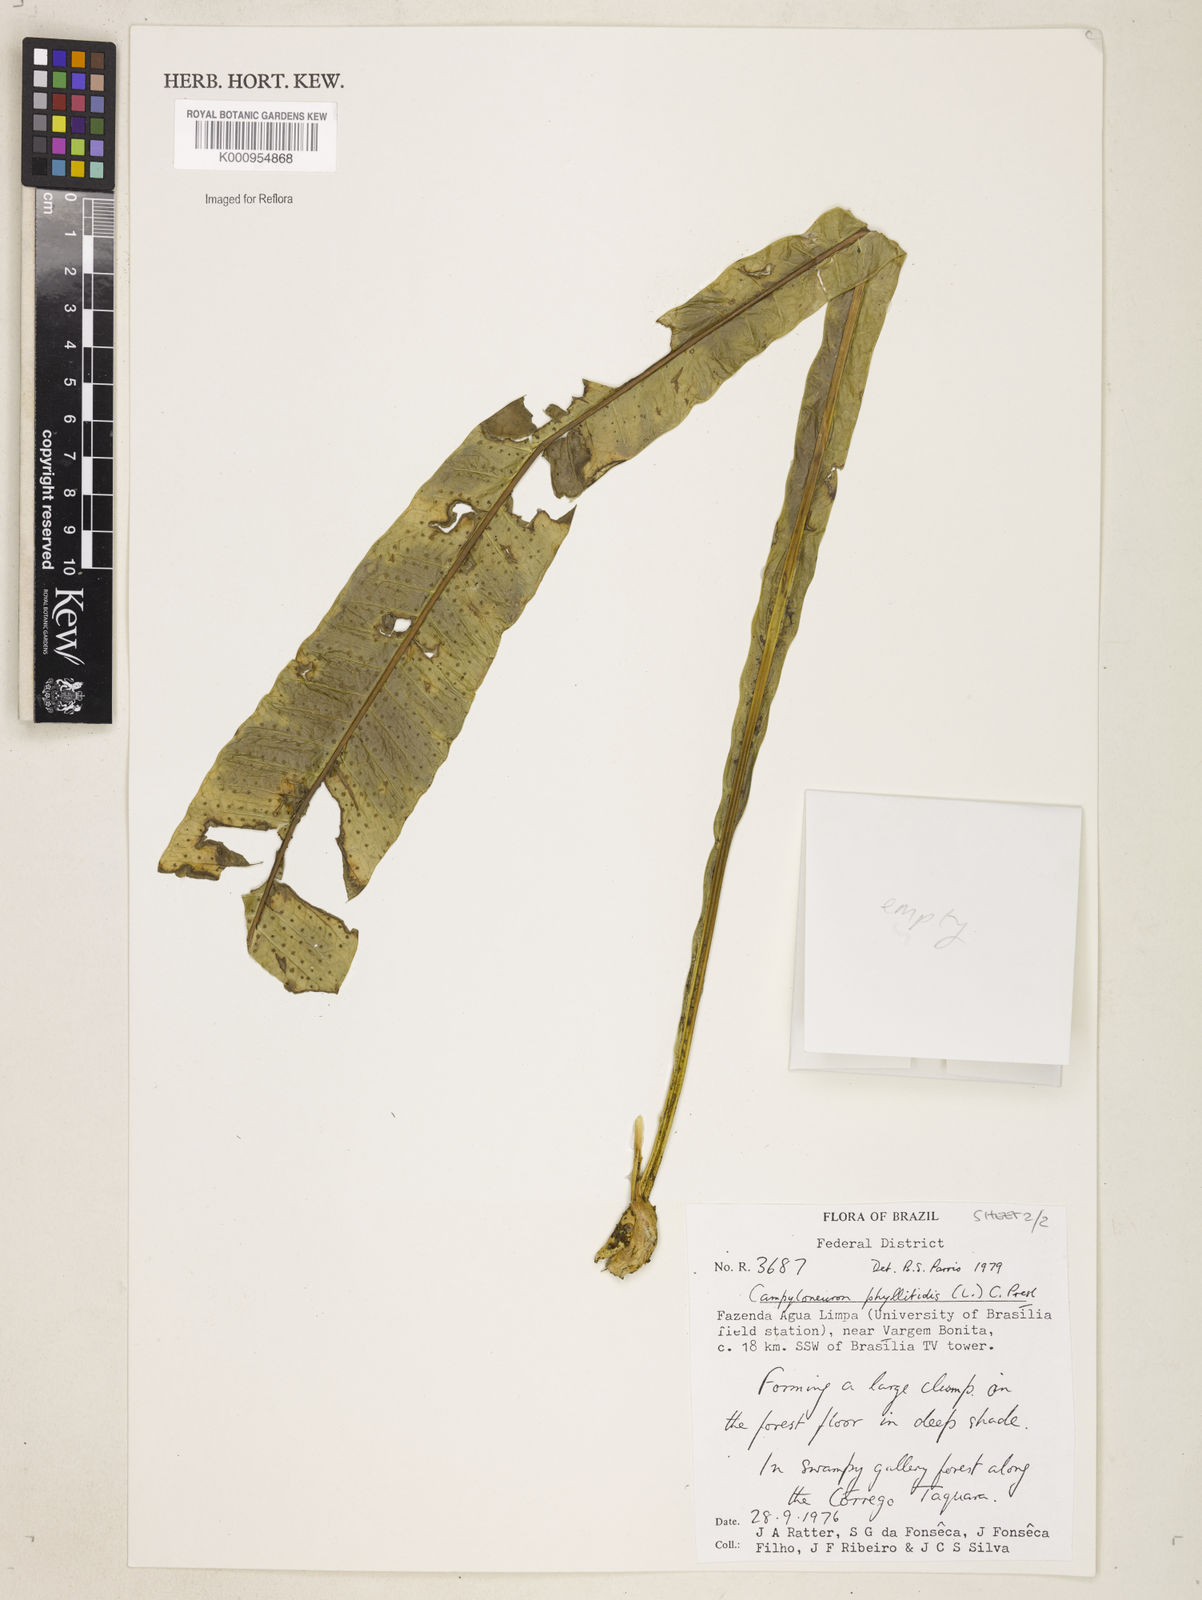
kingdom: Plantae
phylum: Tracheophyta
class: Polypodiopsida
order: Polypodiales
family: Polypodiaceae
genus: Campyloneurum
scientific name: Campyloneurum phyllitidis
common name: Cow-tongue fern
